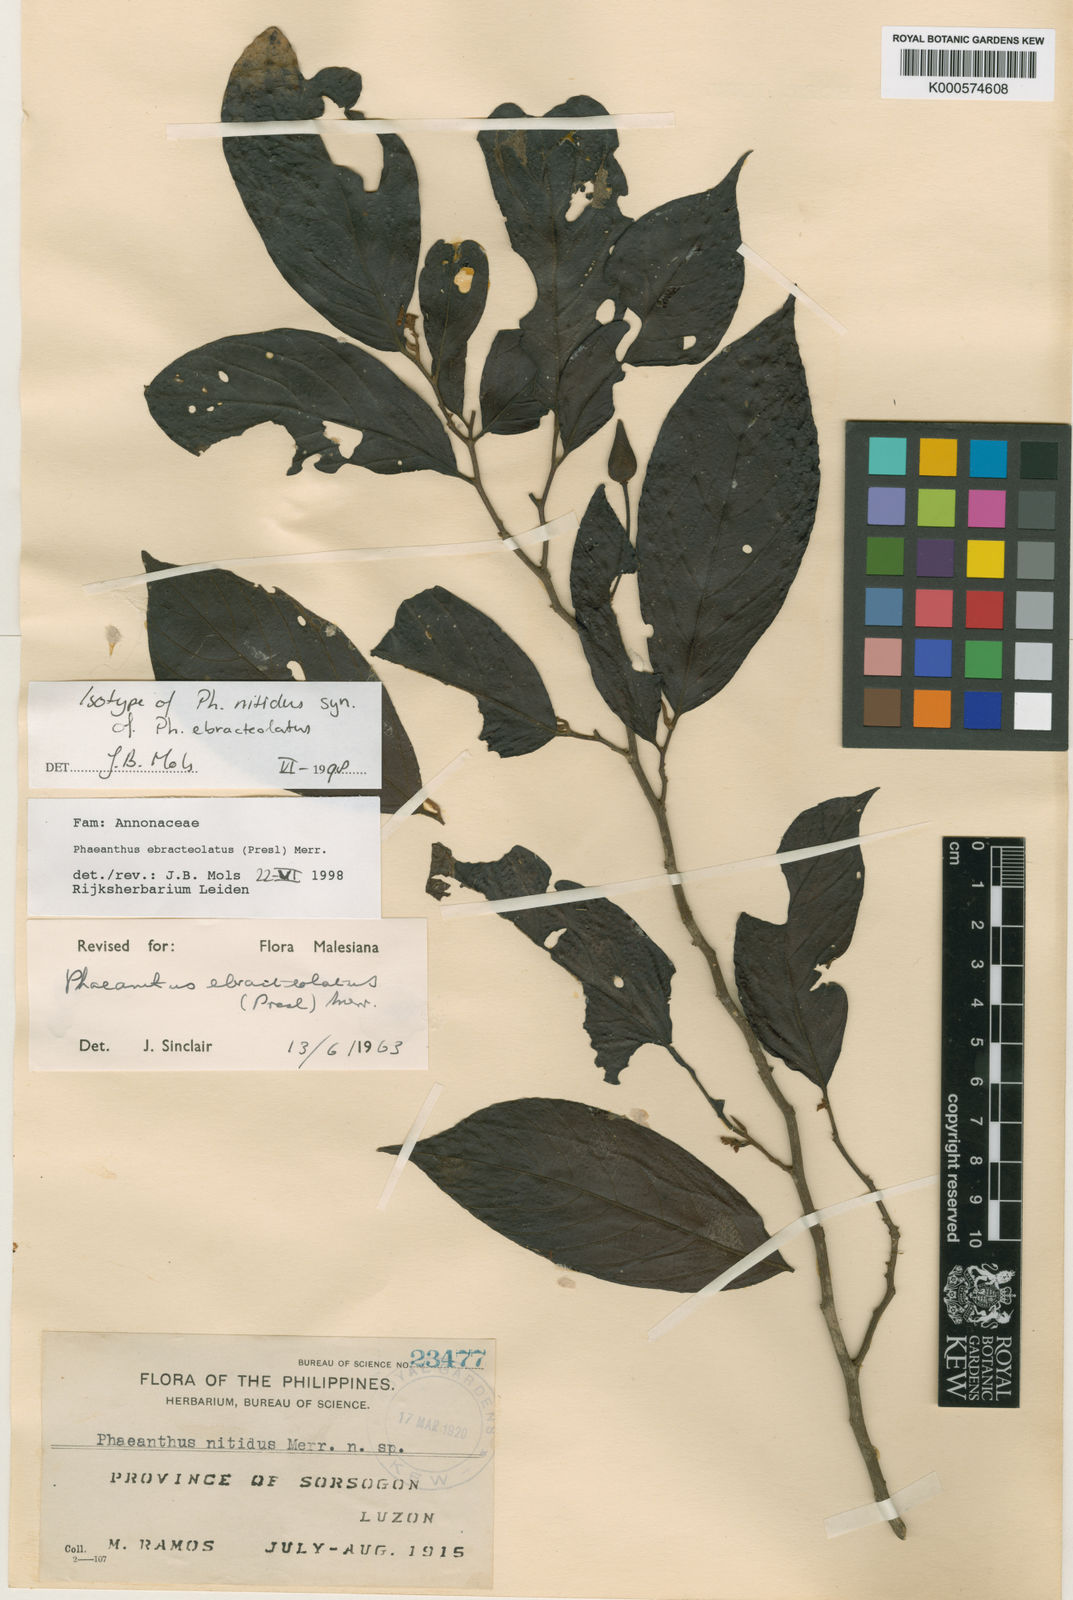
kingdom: Plantae
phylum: Tracheophyta
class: Magnoliopsida
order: Magnoliales
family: Annonaceae
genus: Phaeanthus
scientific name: Phaeanthus ophthalmicus
